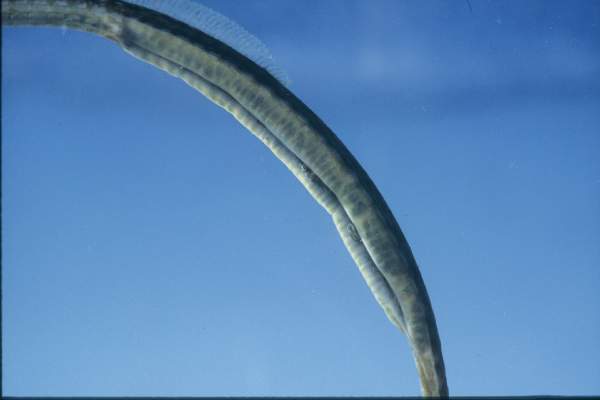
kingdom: Animalia
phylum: Chordata
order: Syngnathiformes
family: Syngnathidae
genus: Syngnathus
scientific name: Syngnathus acus
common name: Greater pipefish
